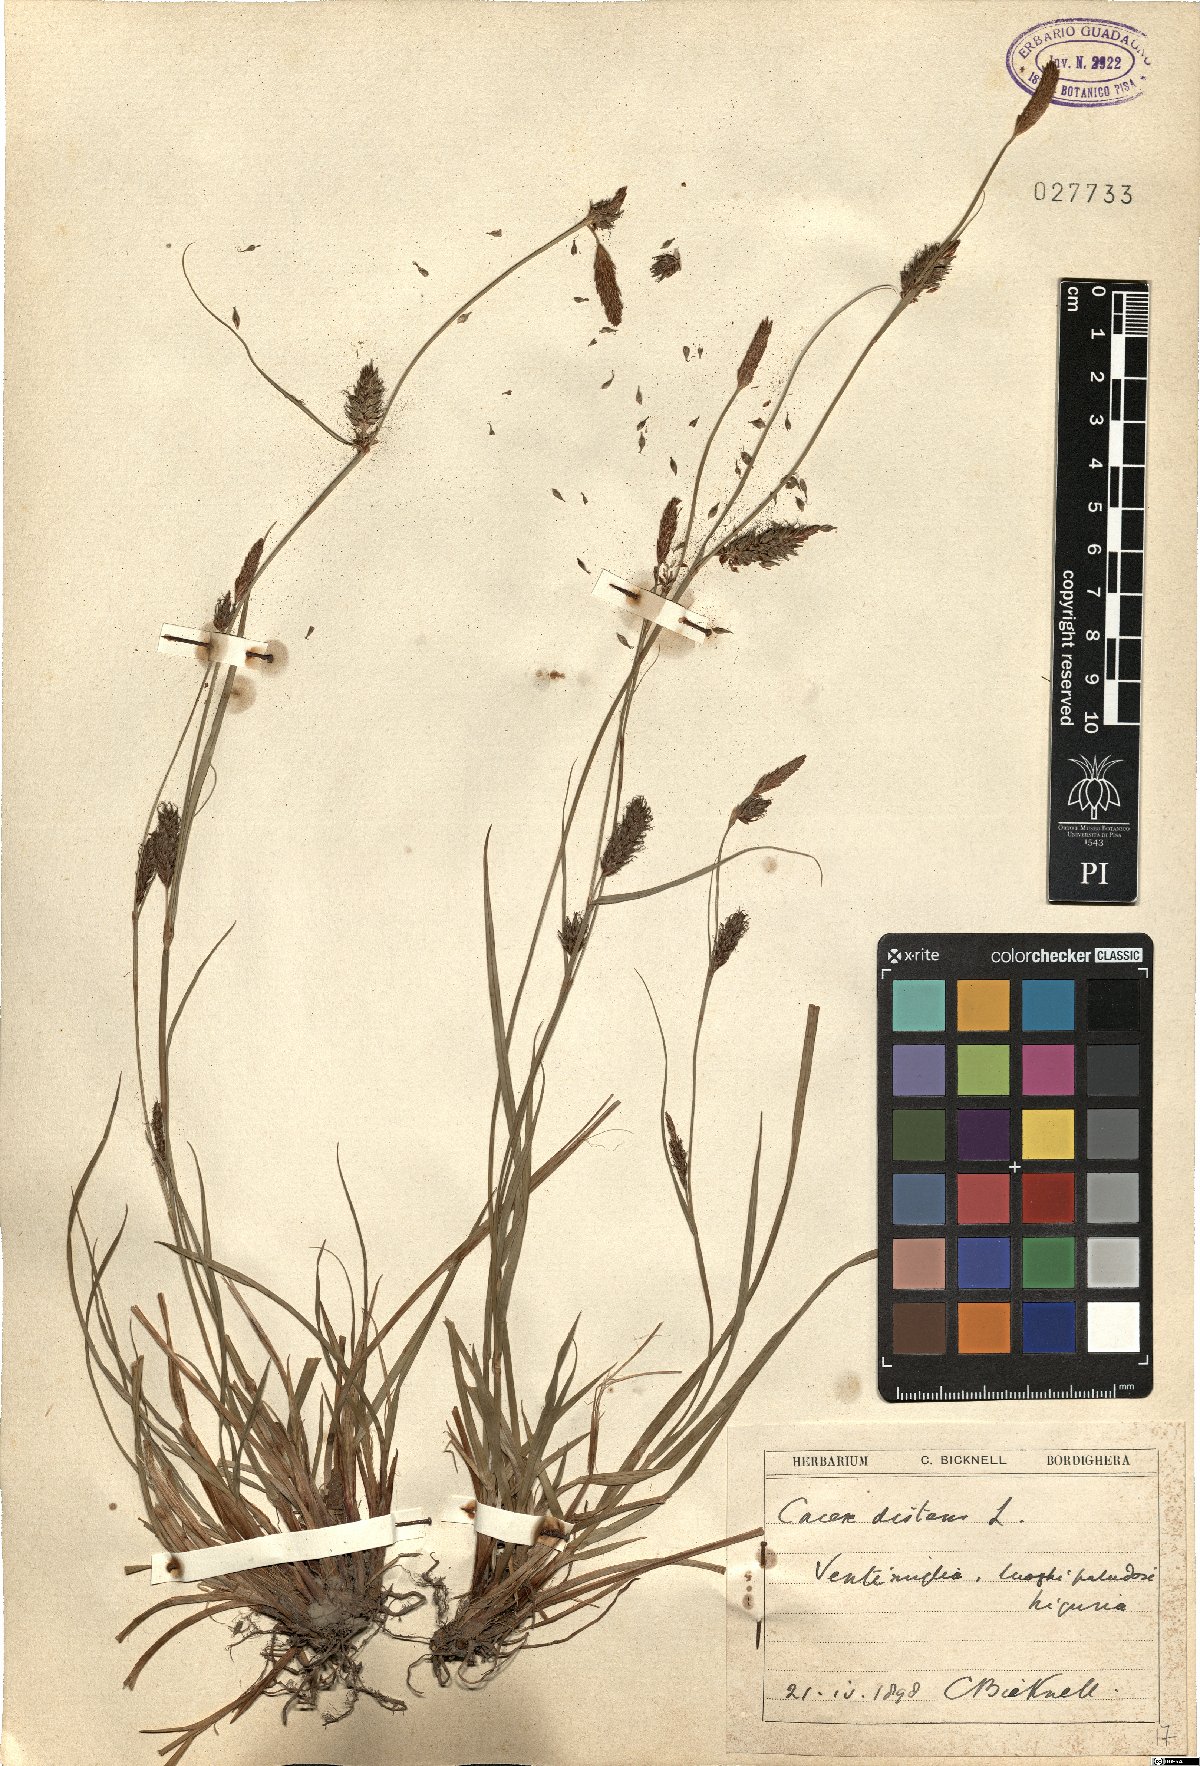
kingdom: Plantae
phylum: Tracheophyta
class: Liliopsida
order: Poales
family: Cyperaceae
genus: Carex
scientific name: Carex distans
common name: Distant sedge
